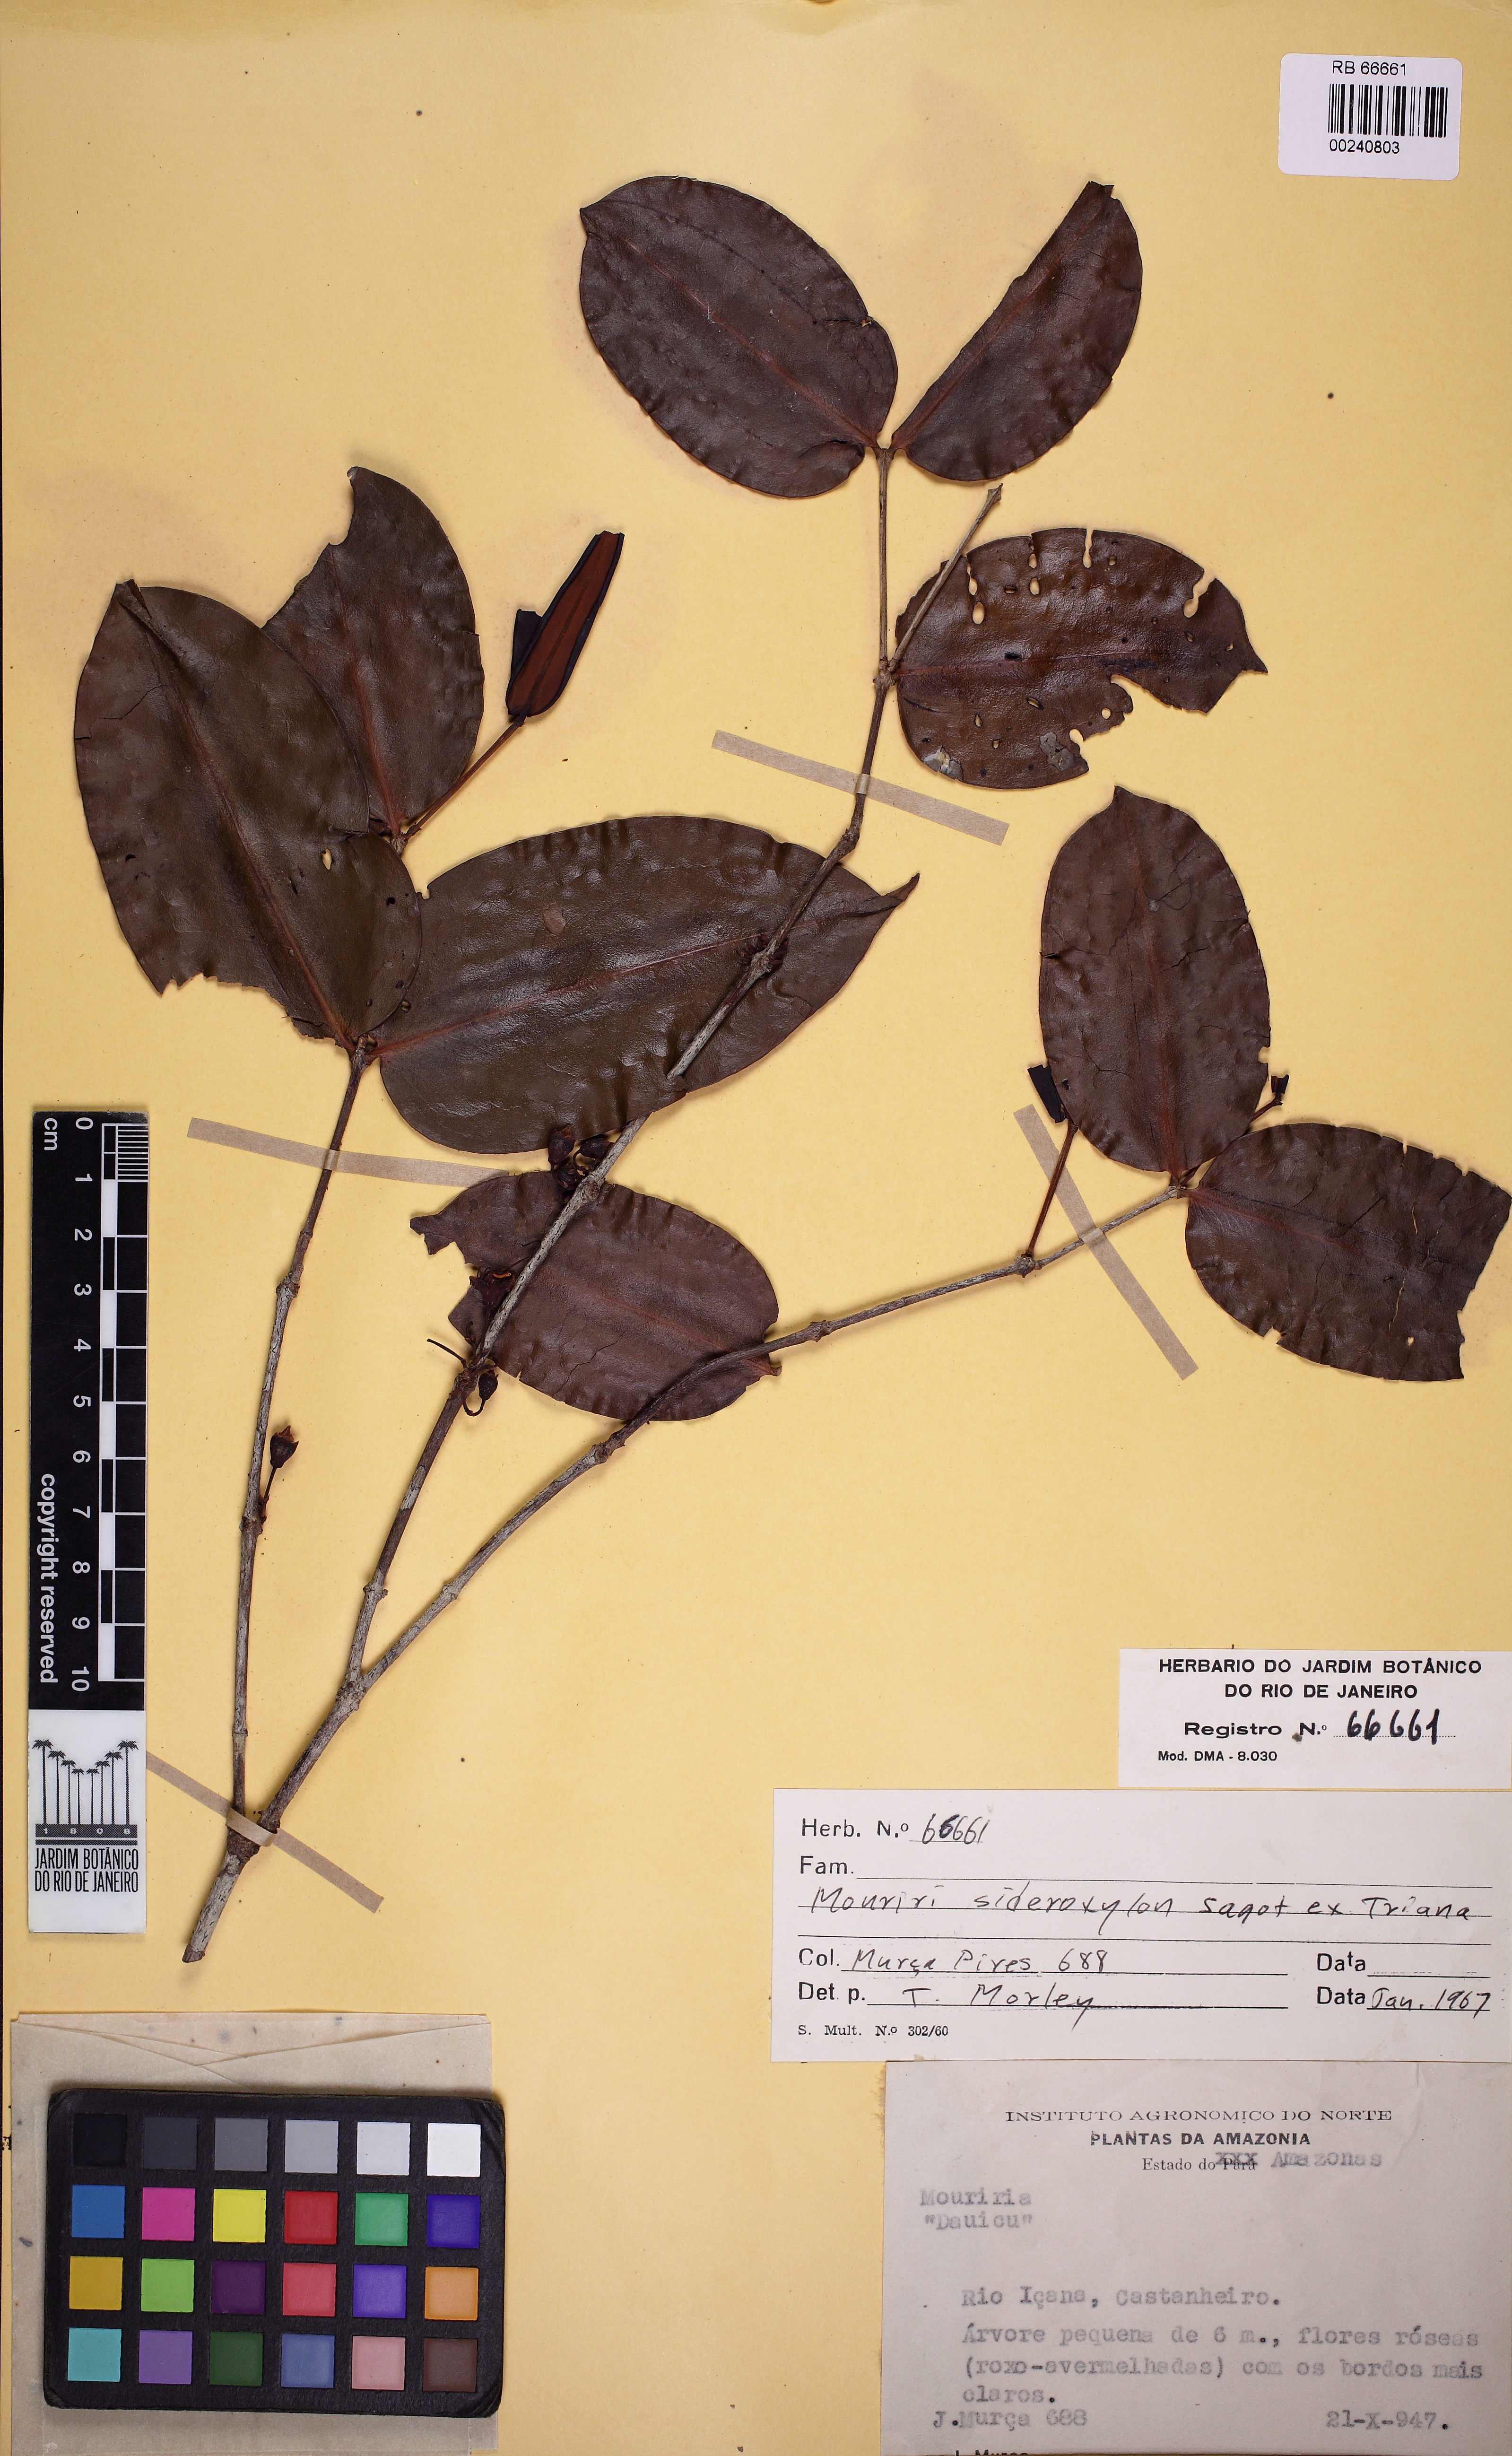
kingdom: Plantae
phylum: Tracheophyta
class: Magnoliopsida
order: Myrtales
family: Melastomataceae
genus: Mouriri
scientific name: Mouriri sideroxylon
